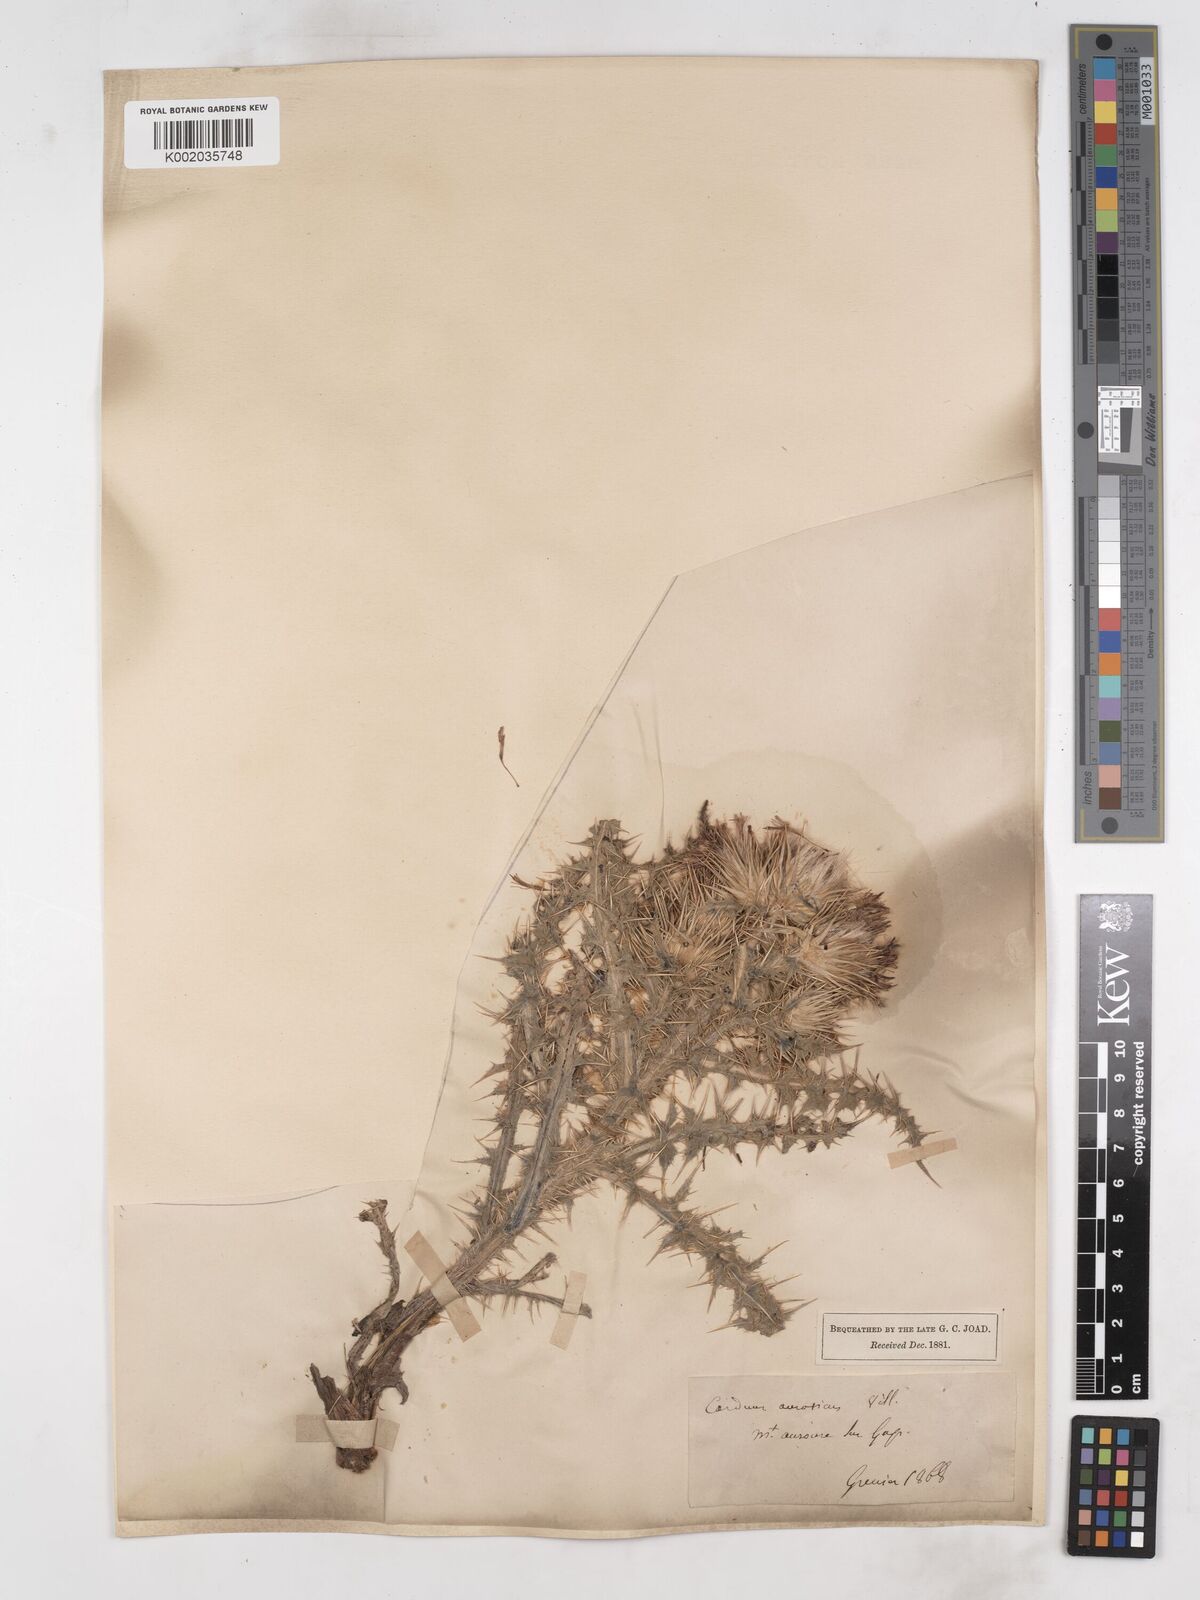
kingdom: Plantae
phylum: Tracheophyta
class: Magnoliopsida
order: Asterales
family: Asteraceae
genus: Carduus
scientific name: Carduus aurosicus
